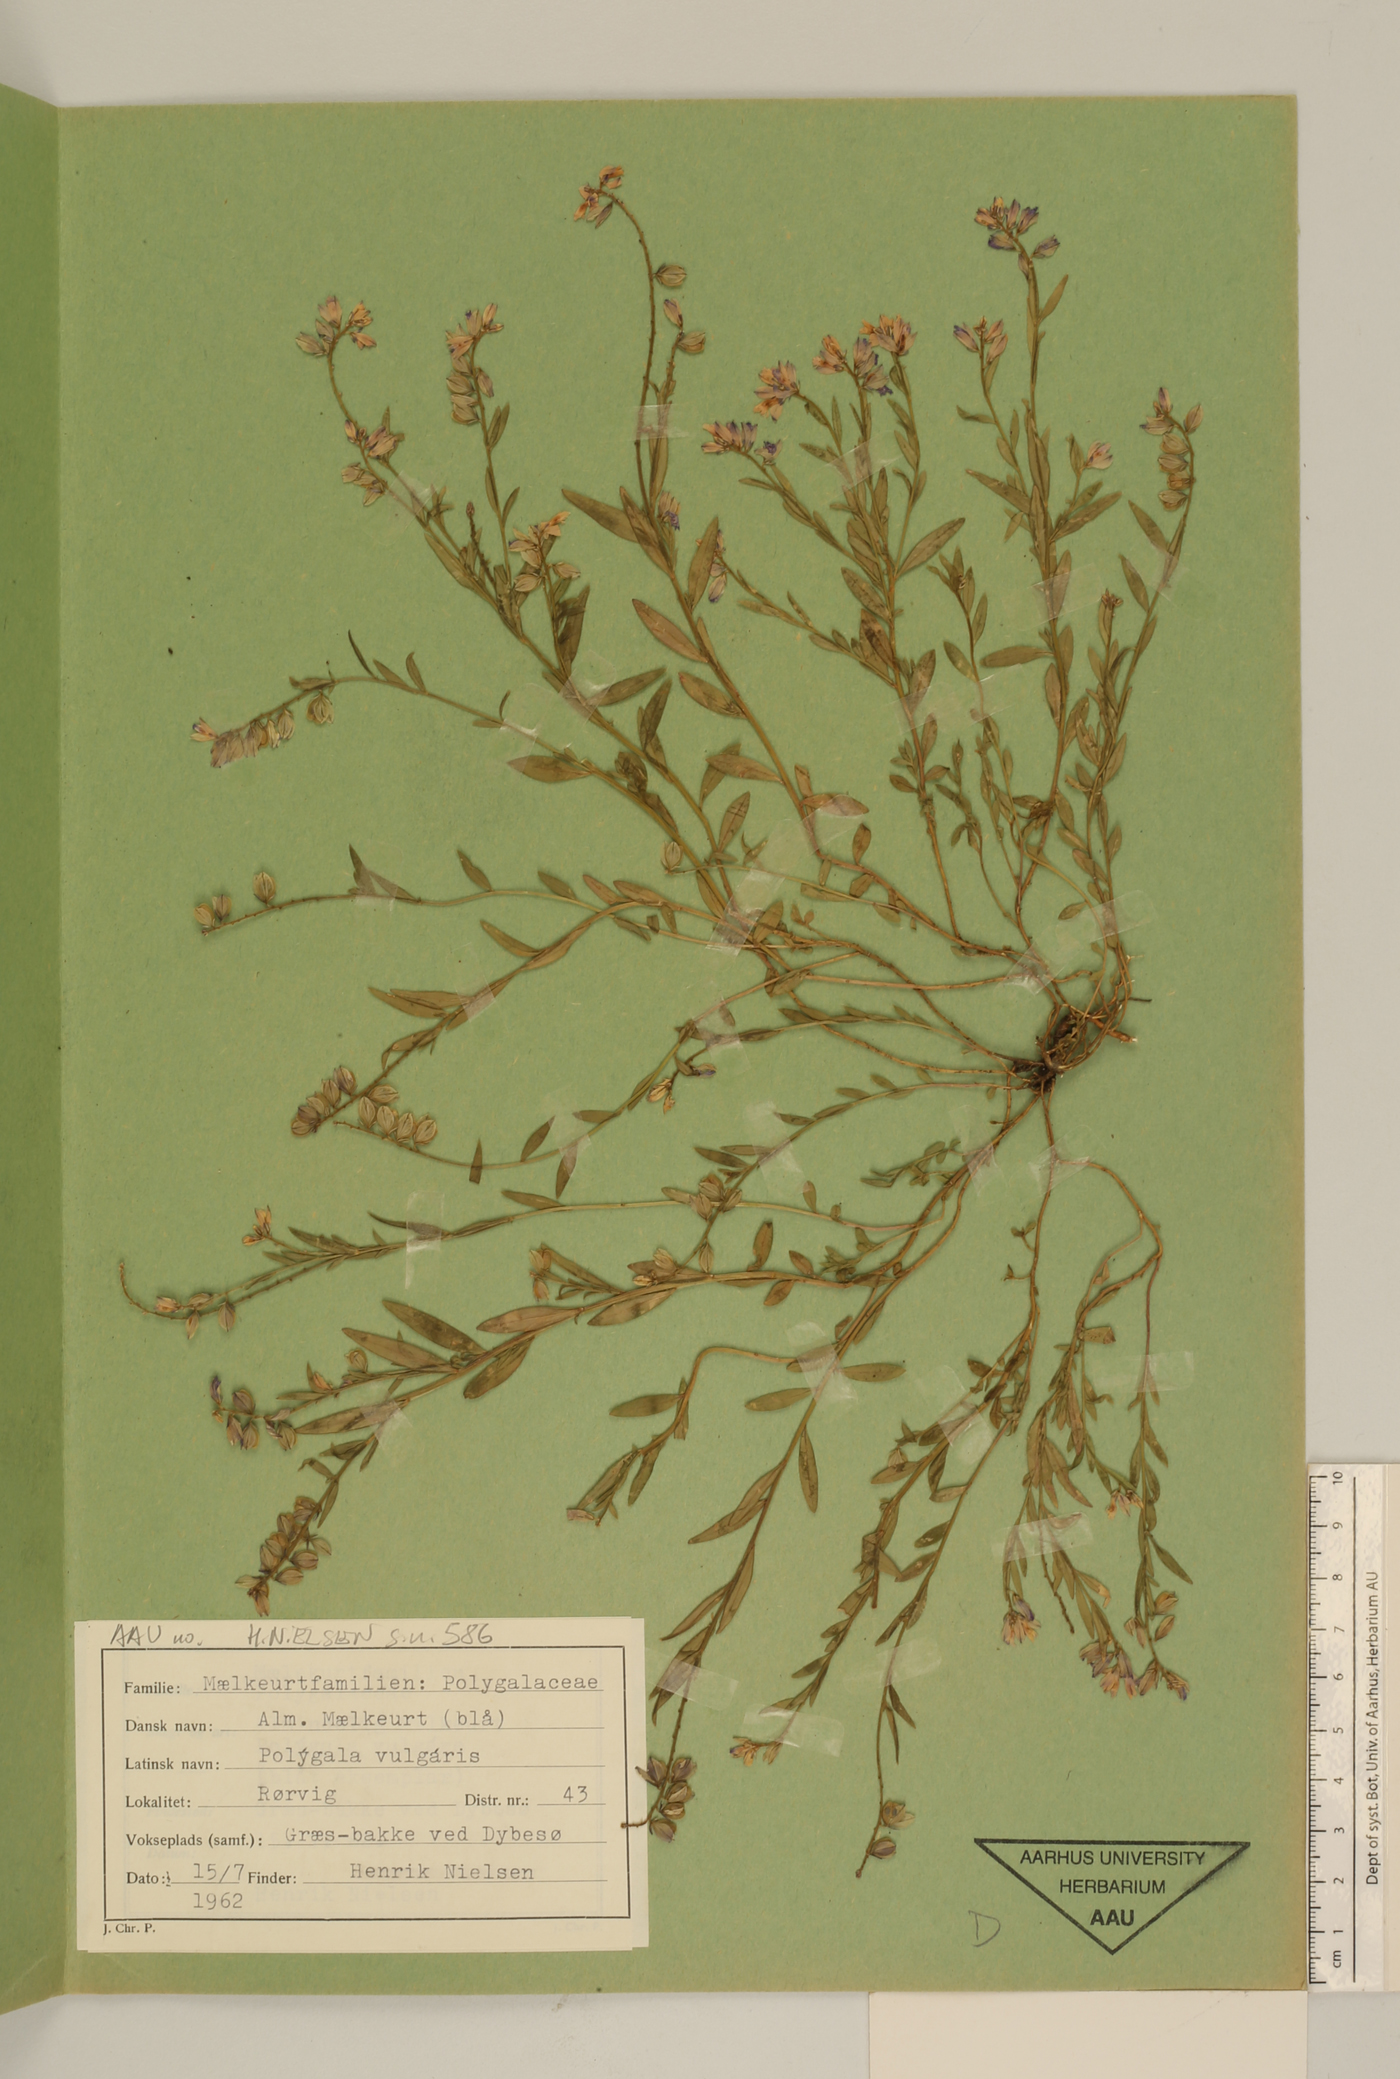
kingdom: Plantae
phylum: Tracheophyta
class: Magnoliopsida
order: Fabales
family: Polygalaceae
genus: Polygala
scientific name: Polygala vulgaris
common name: Common milkwort
